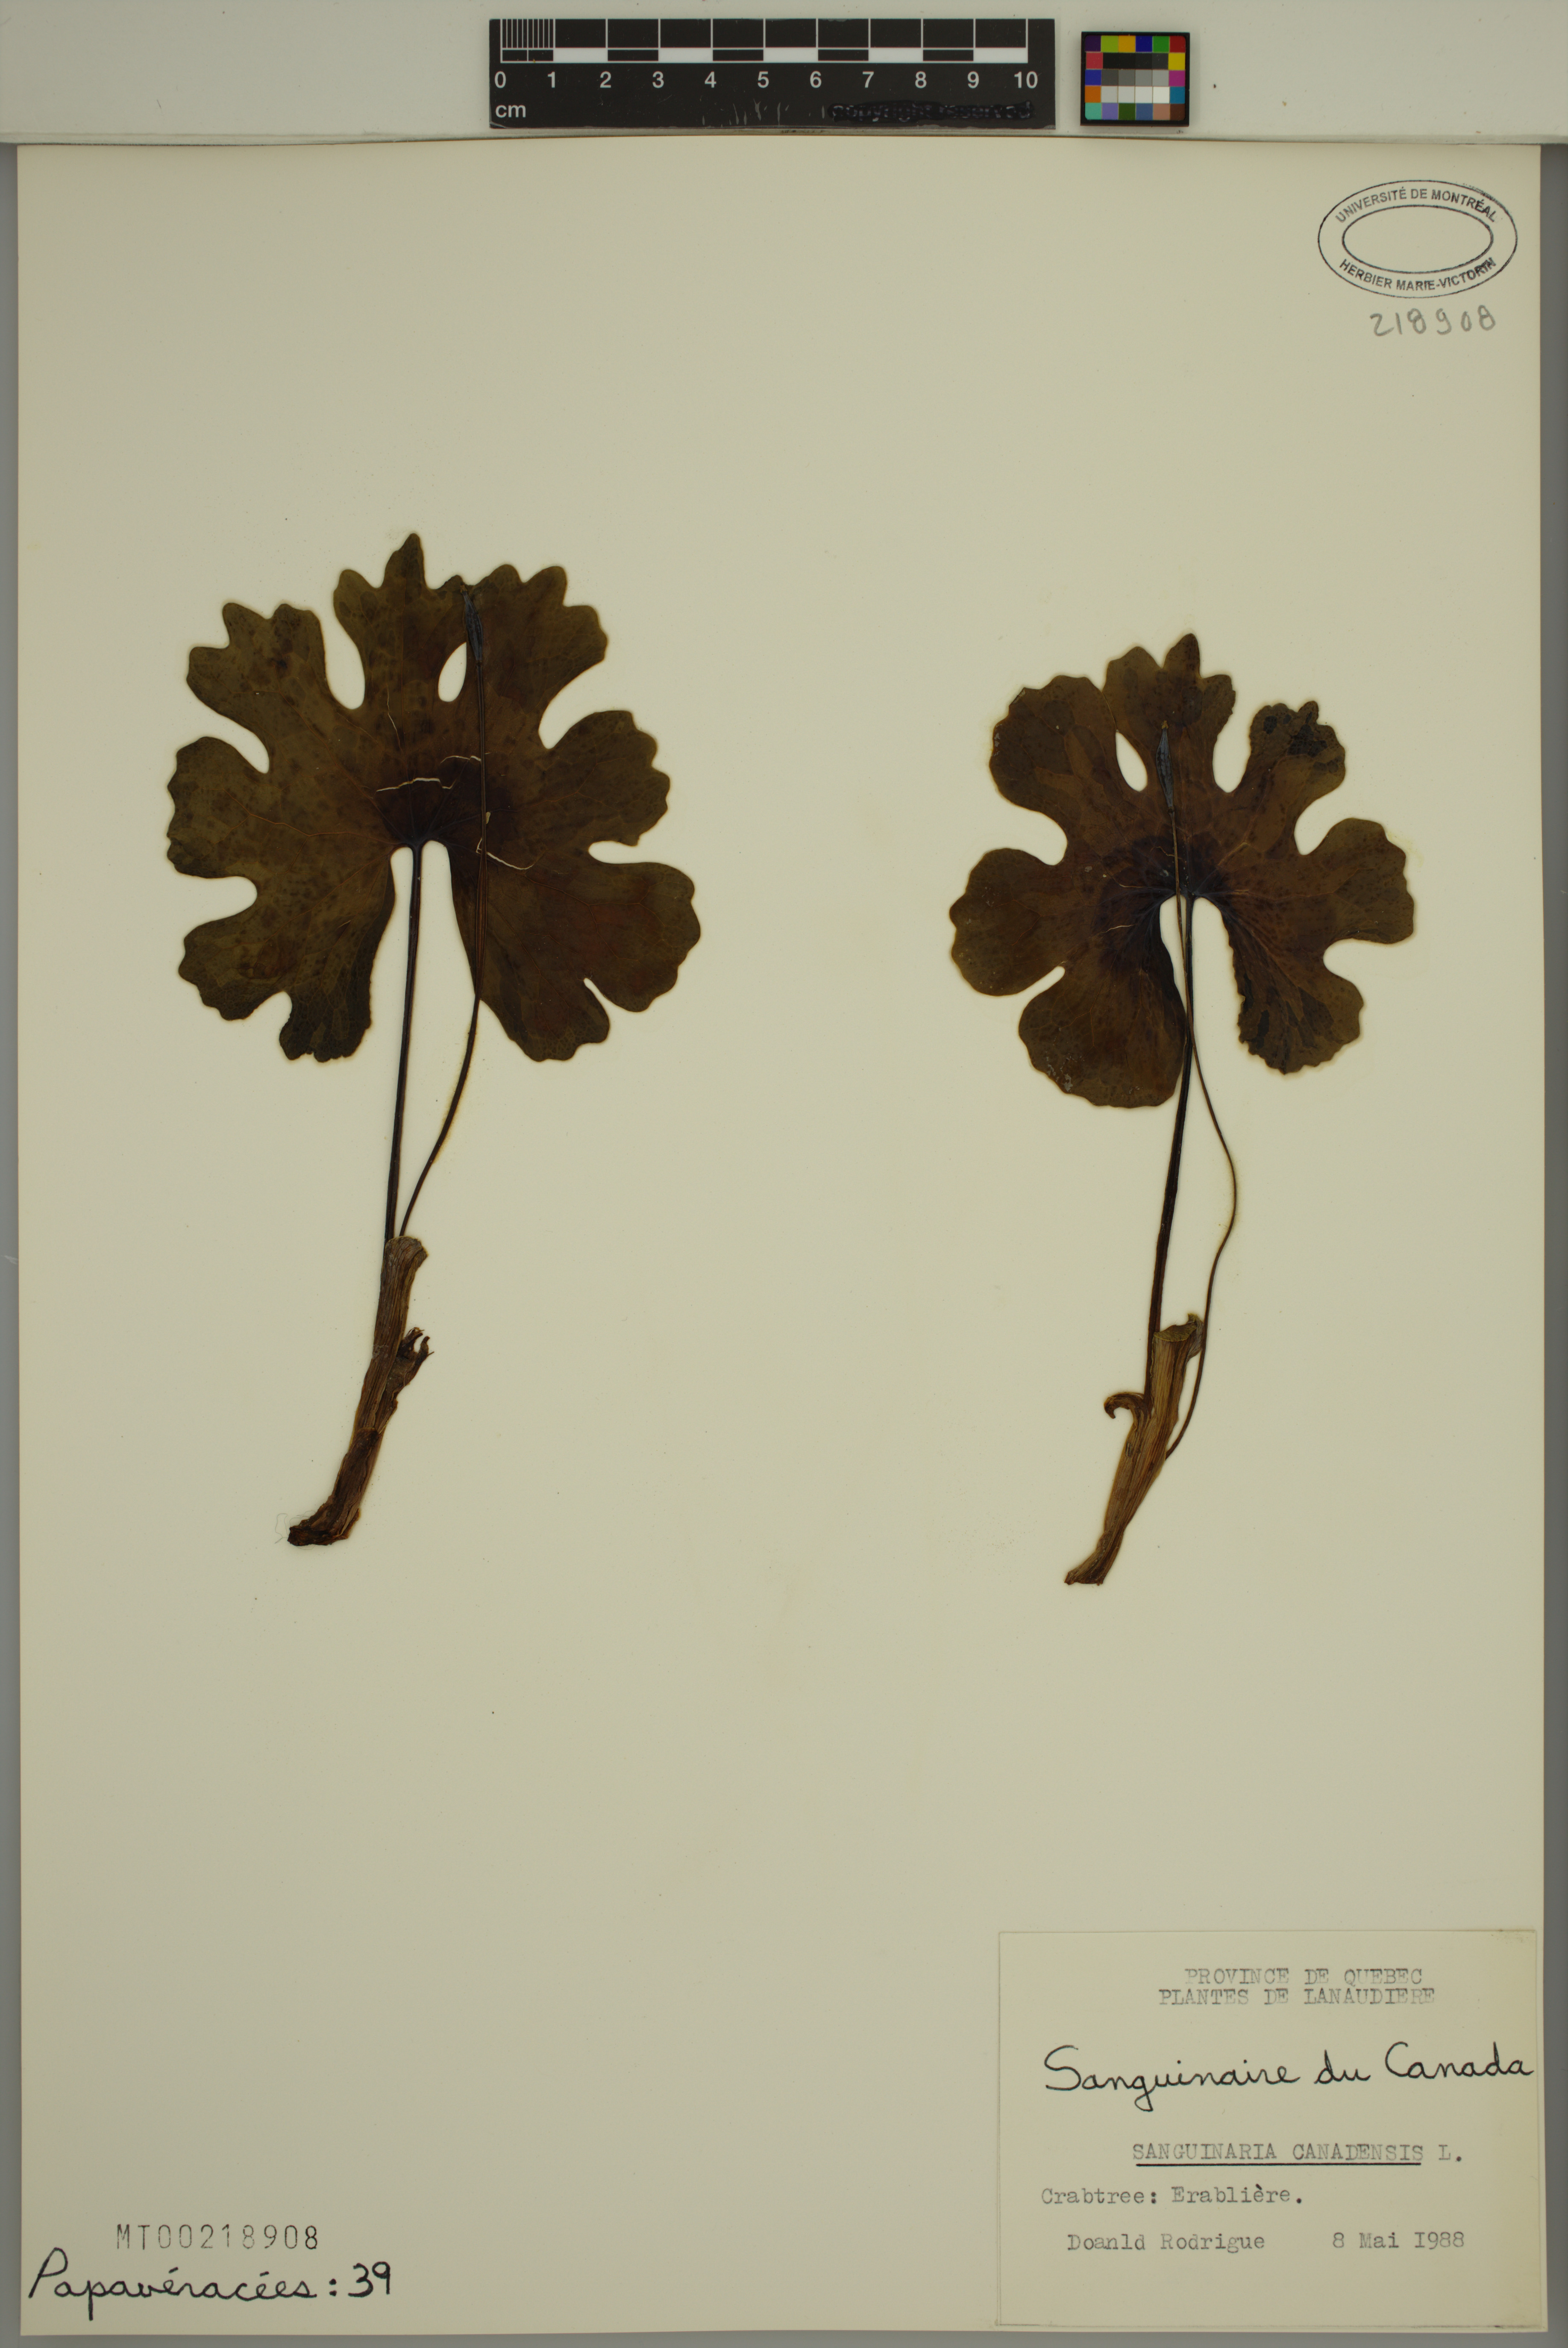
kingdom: Plantae
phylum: Tracheophyta
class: Magnoliopsida
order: Ranunculales
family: Papaveraceae
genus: Sanguinaria
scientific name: Sanguinaria canadensis
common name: Bloodroot
